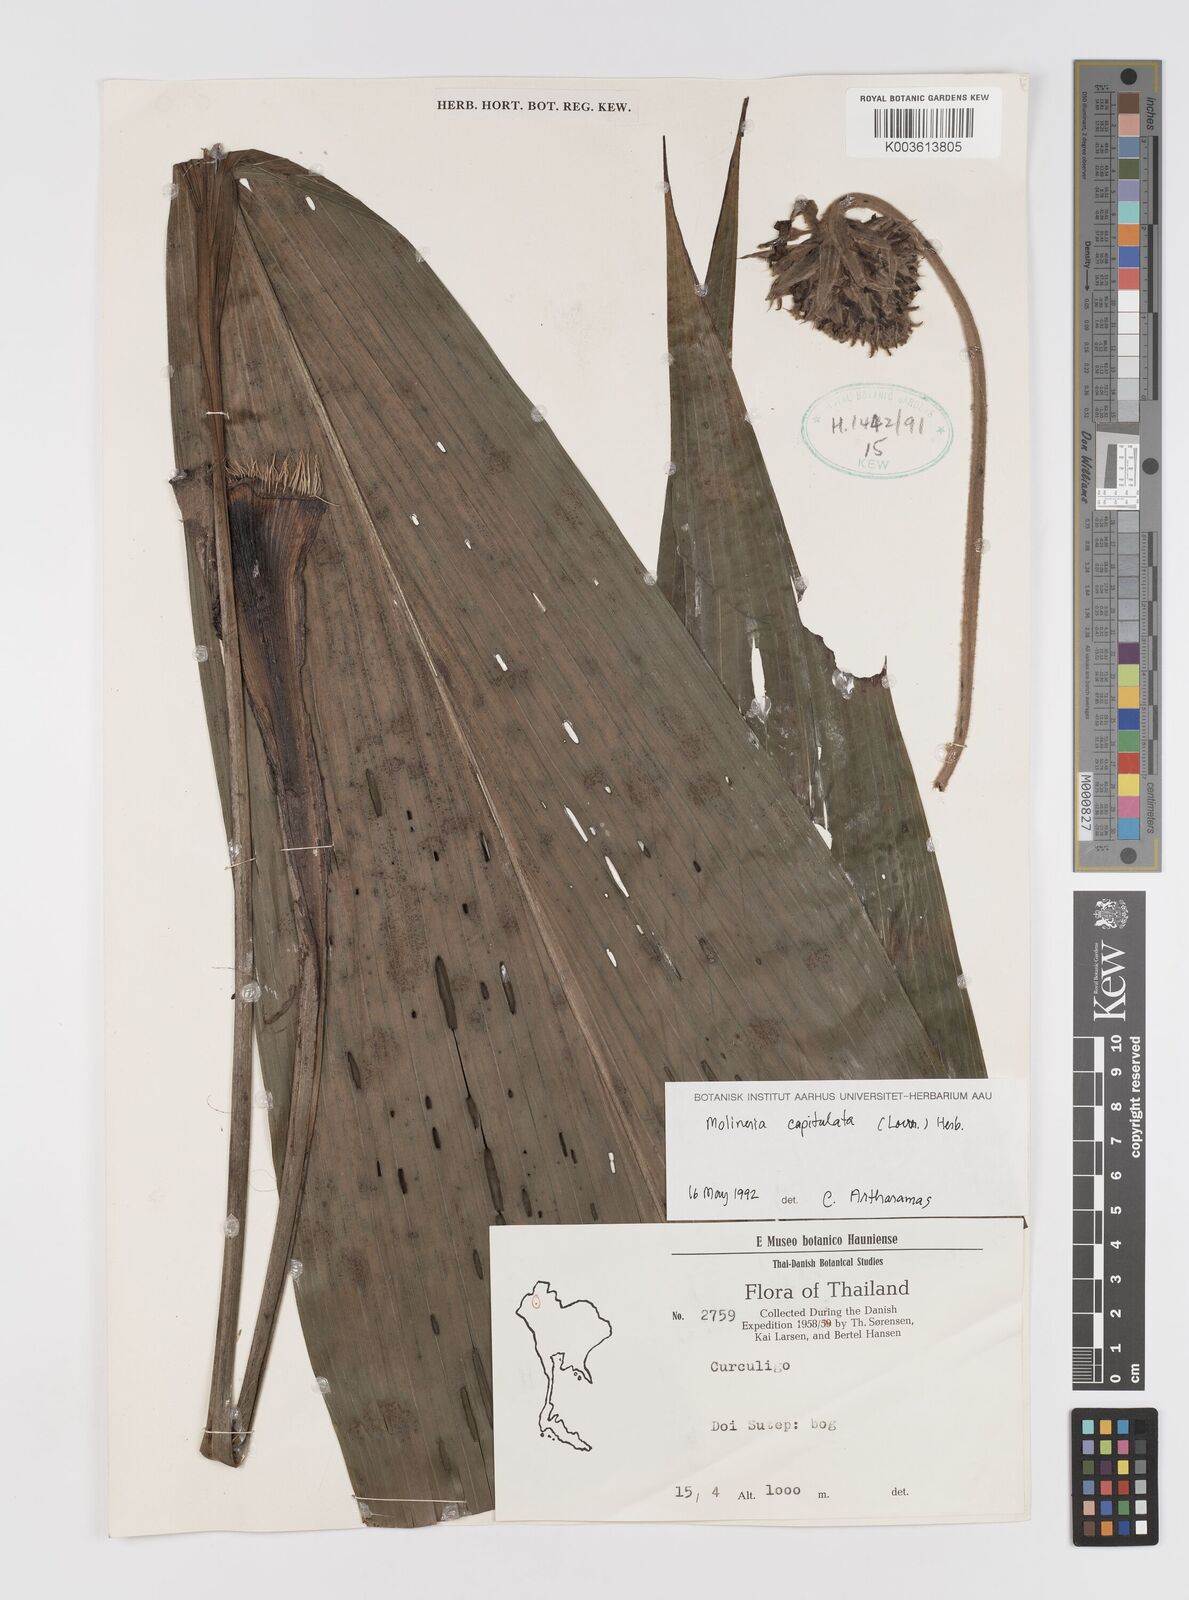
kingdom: Plantae
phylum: Tracheophyta
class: Liliopsida
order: Asparagales
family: Hypoxidaceae
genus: Curculigo
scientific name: Curculigo capitulata
